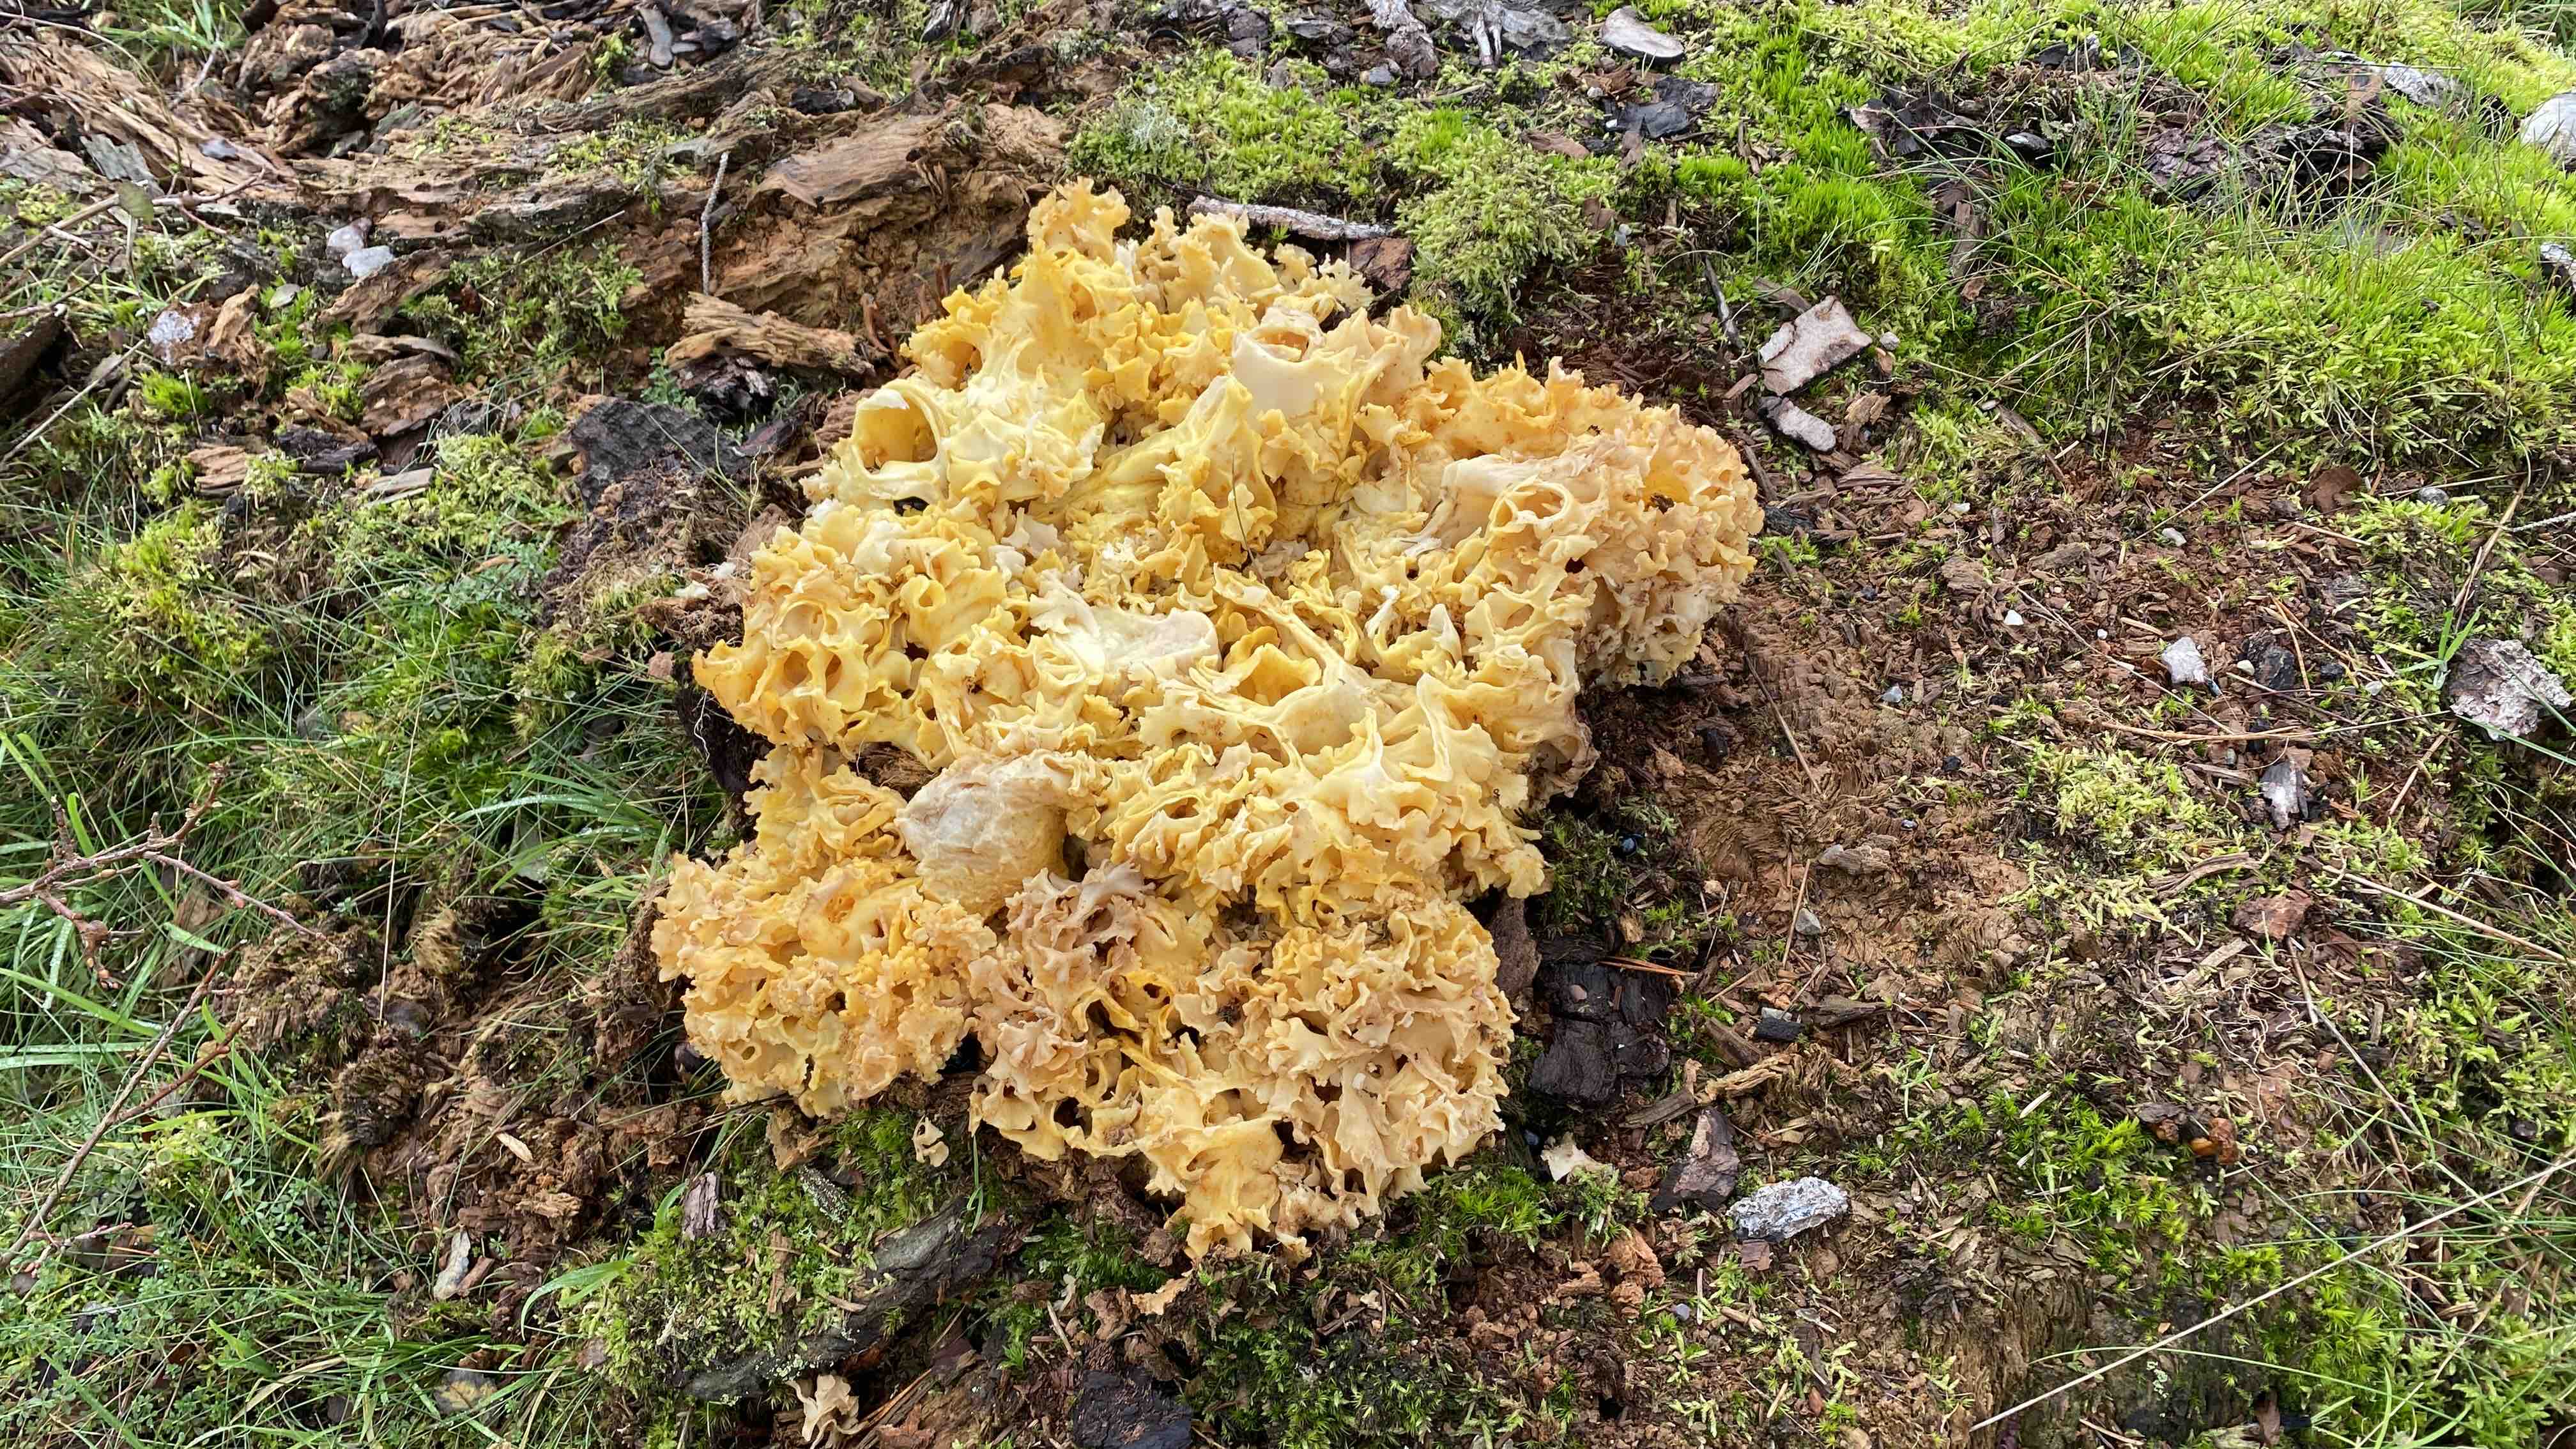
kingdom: Fungi
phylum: Basidiomycota
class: Agaricomycetes
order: Polyporales
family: Sparassidaceae
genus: Sparassis
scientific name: Sparassis crispa
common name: kruset blomkålssvamp
